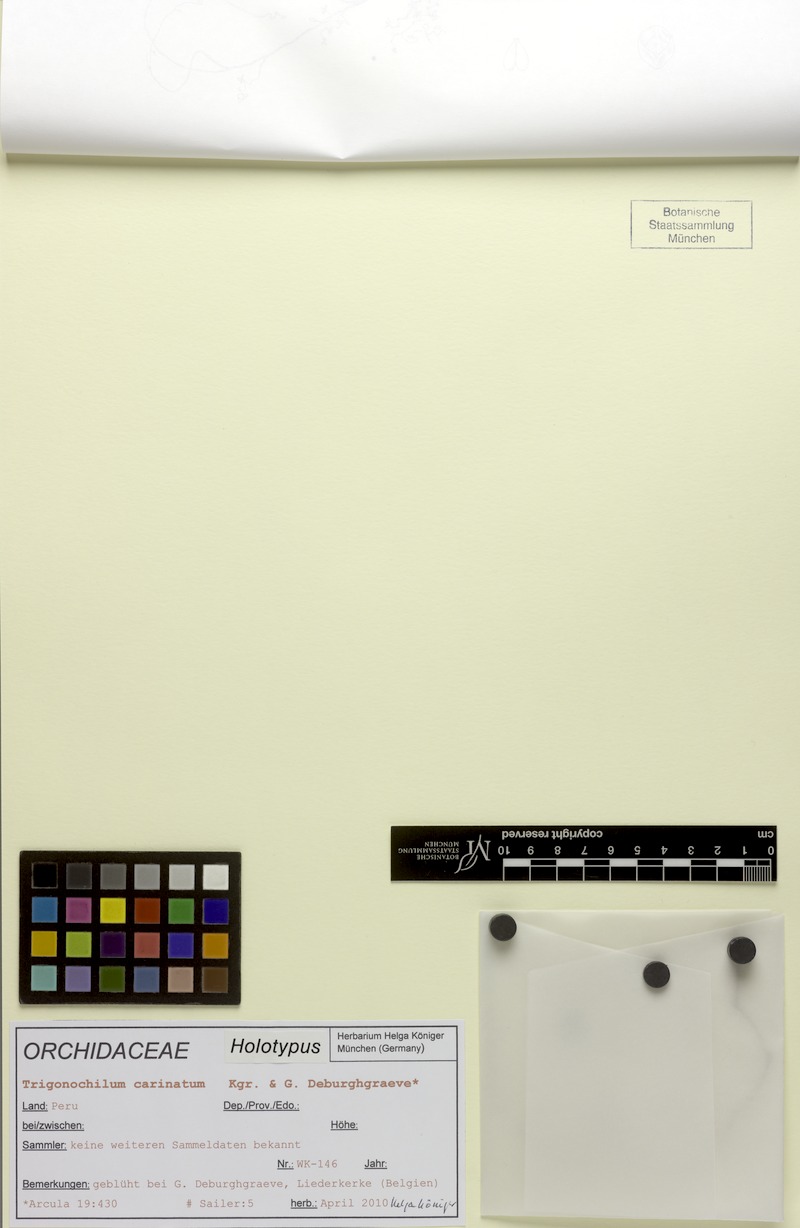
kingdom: Plantae
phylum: Tracheophyta
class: Liliopsida
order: Asparagales
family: Orchidaceae
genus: Cyrtochilum
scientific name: Cyrtochilum carinatum
